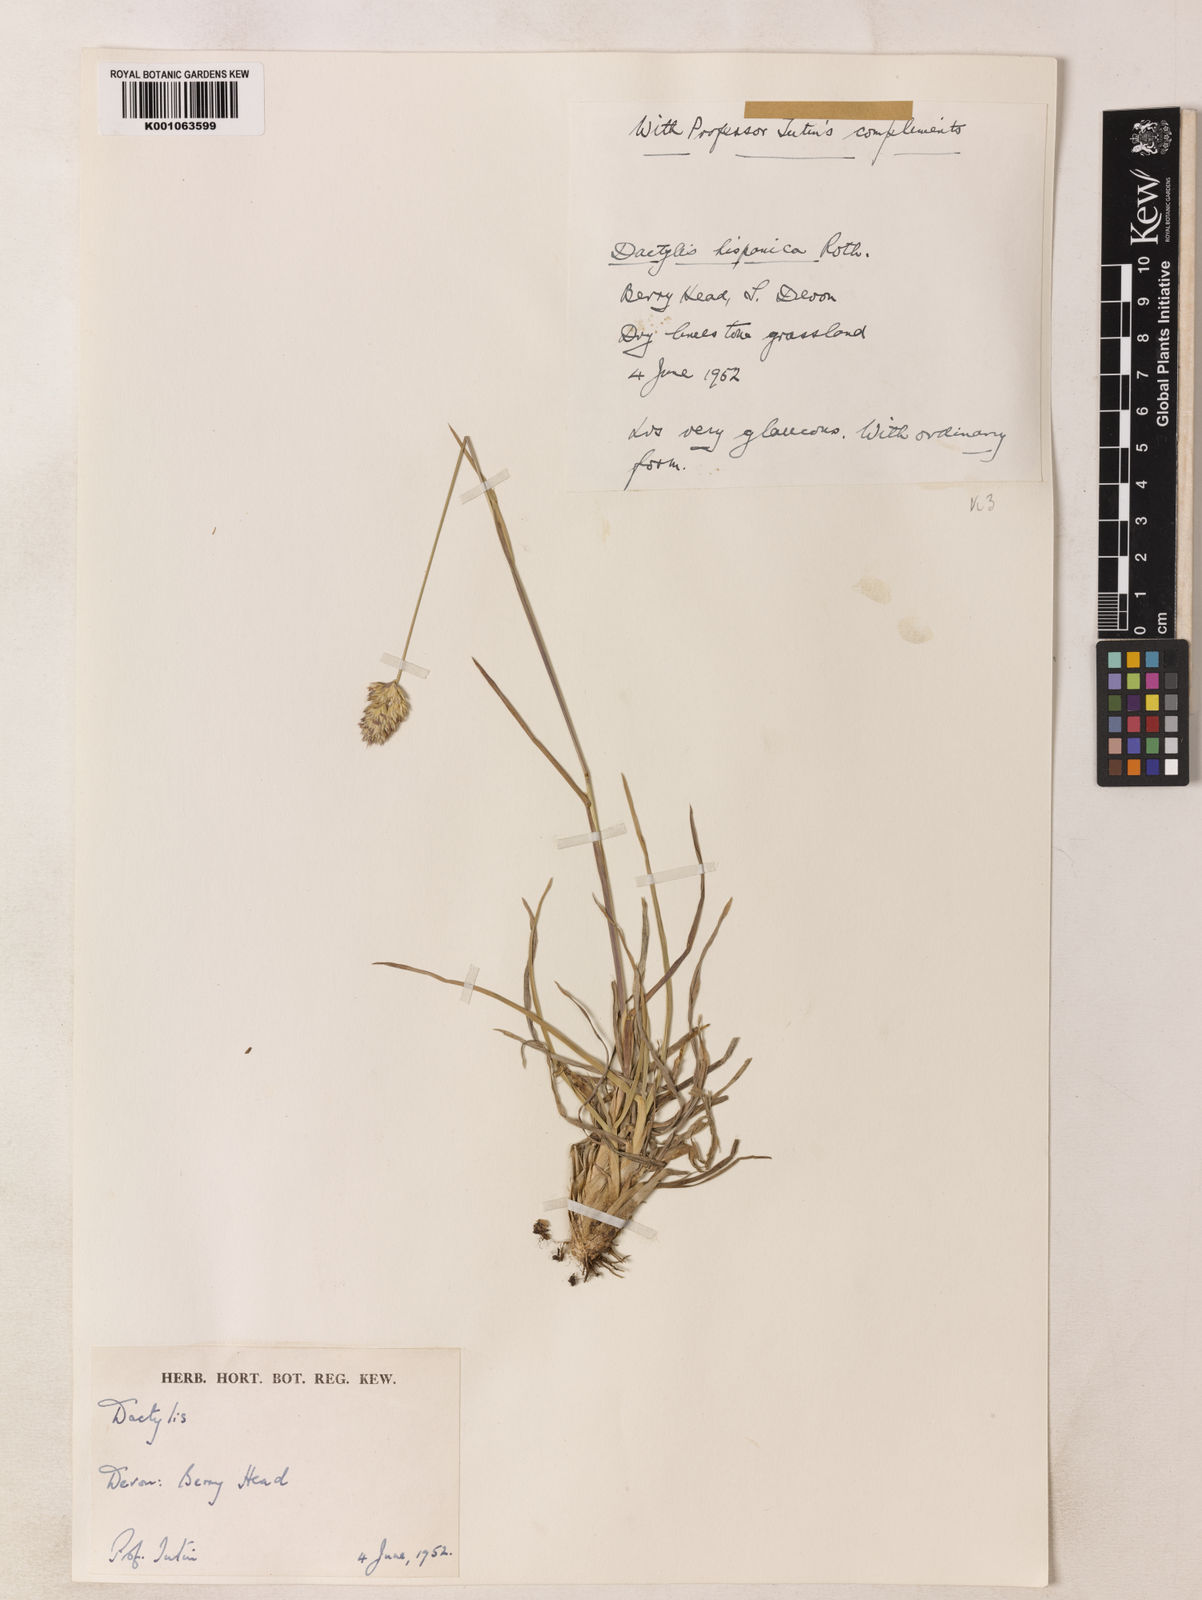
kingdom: Plantae
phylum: Tracheophyta
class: Liliopsida
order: Poales
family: Poaceae
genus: Dactylis
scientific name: Dactylis glomerata
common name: Orchardgrass
